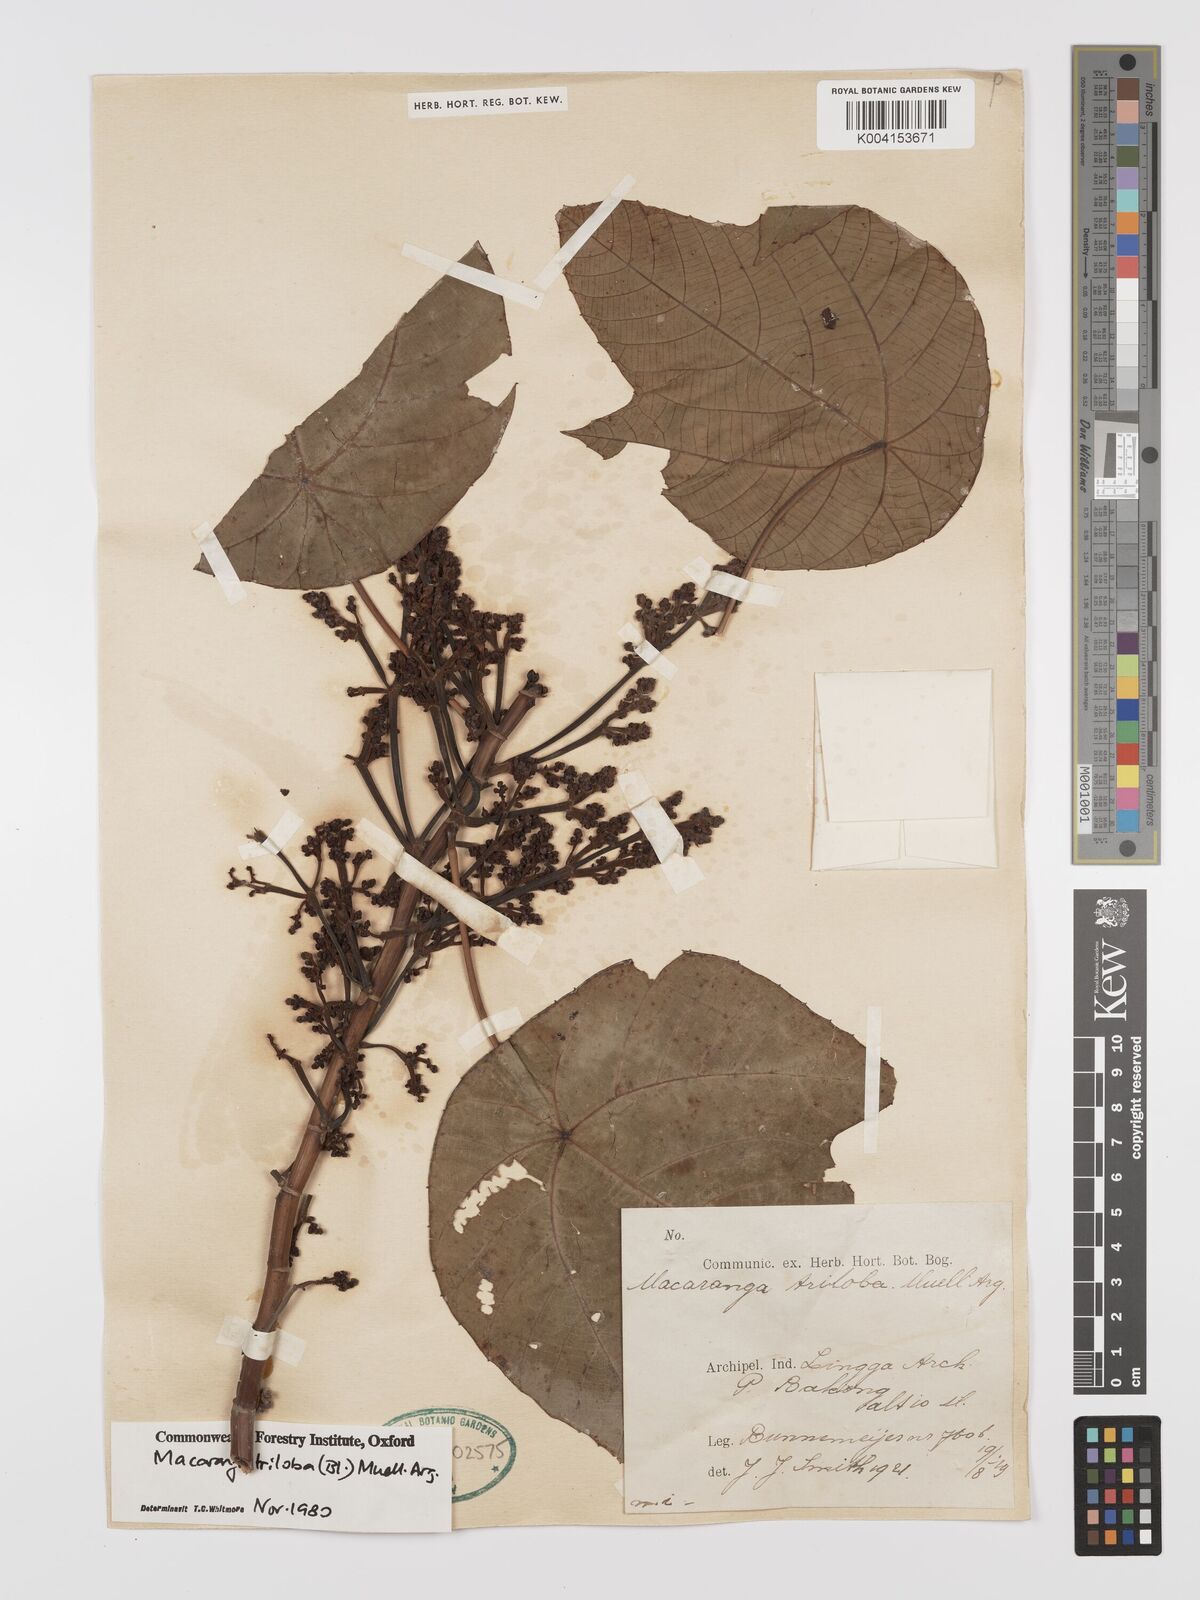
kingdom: Plantae
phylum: Tracheophyta
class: Magnoliopsida
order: Malpighiales
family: Euphorbiaceae
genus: Macaranga
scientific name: Macaranga triloba
